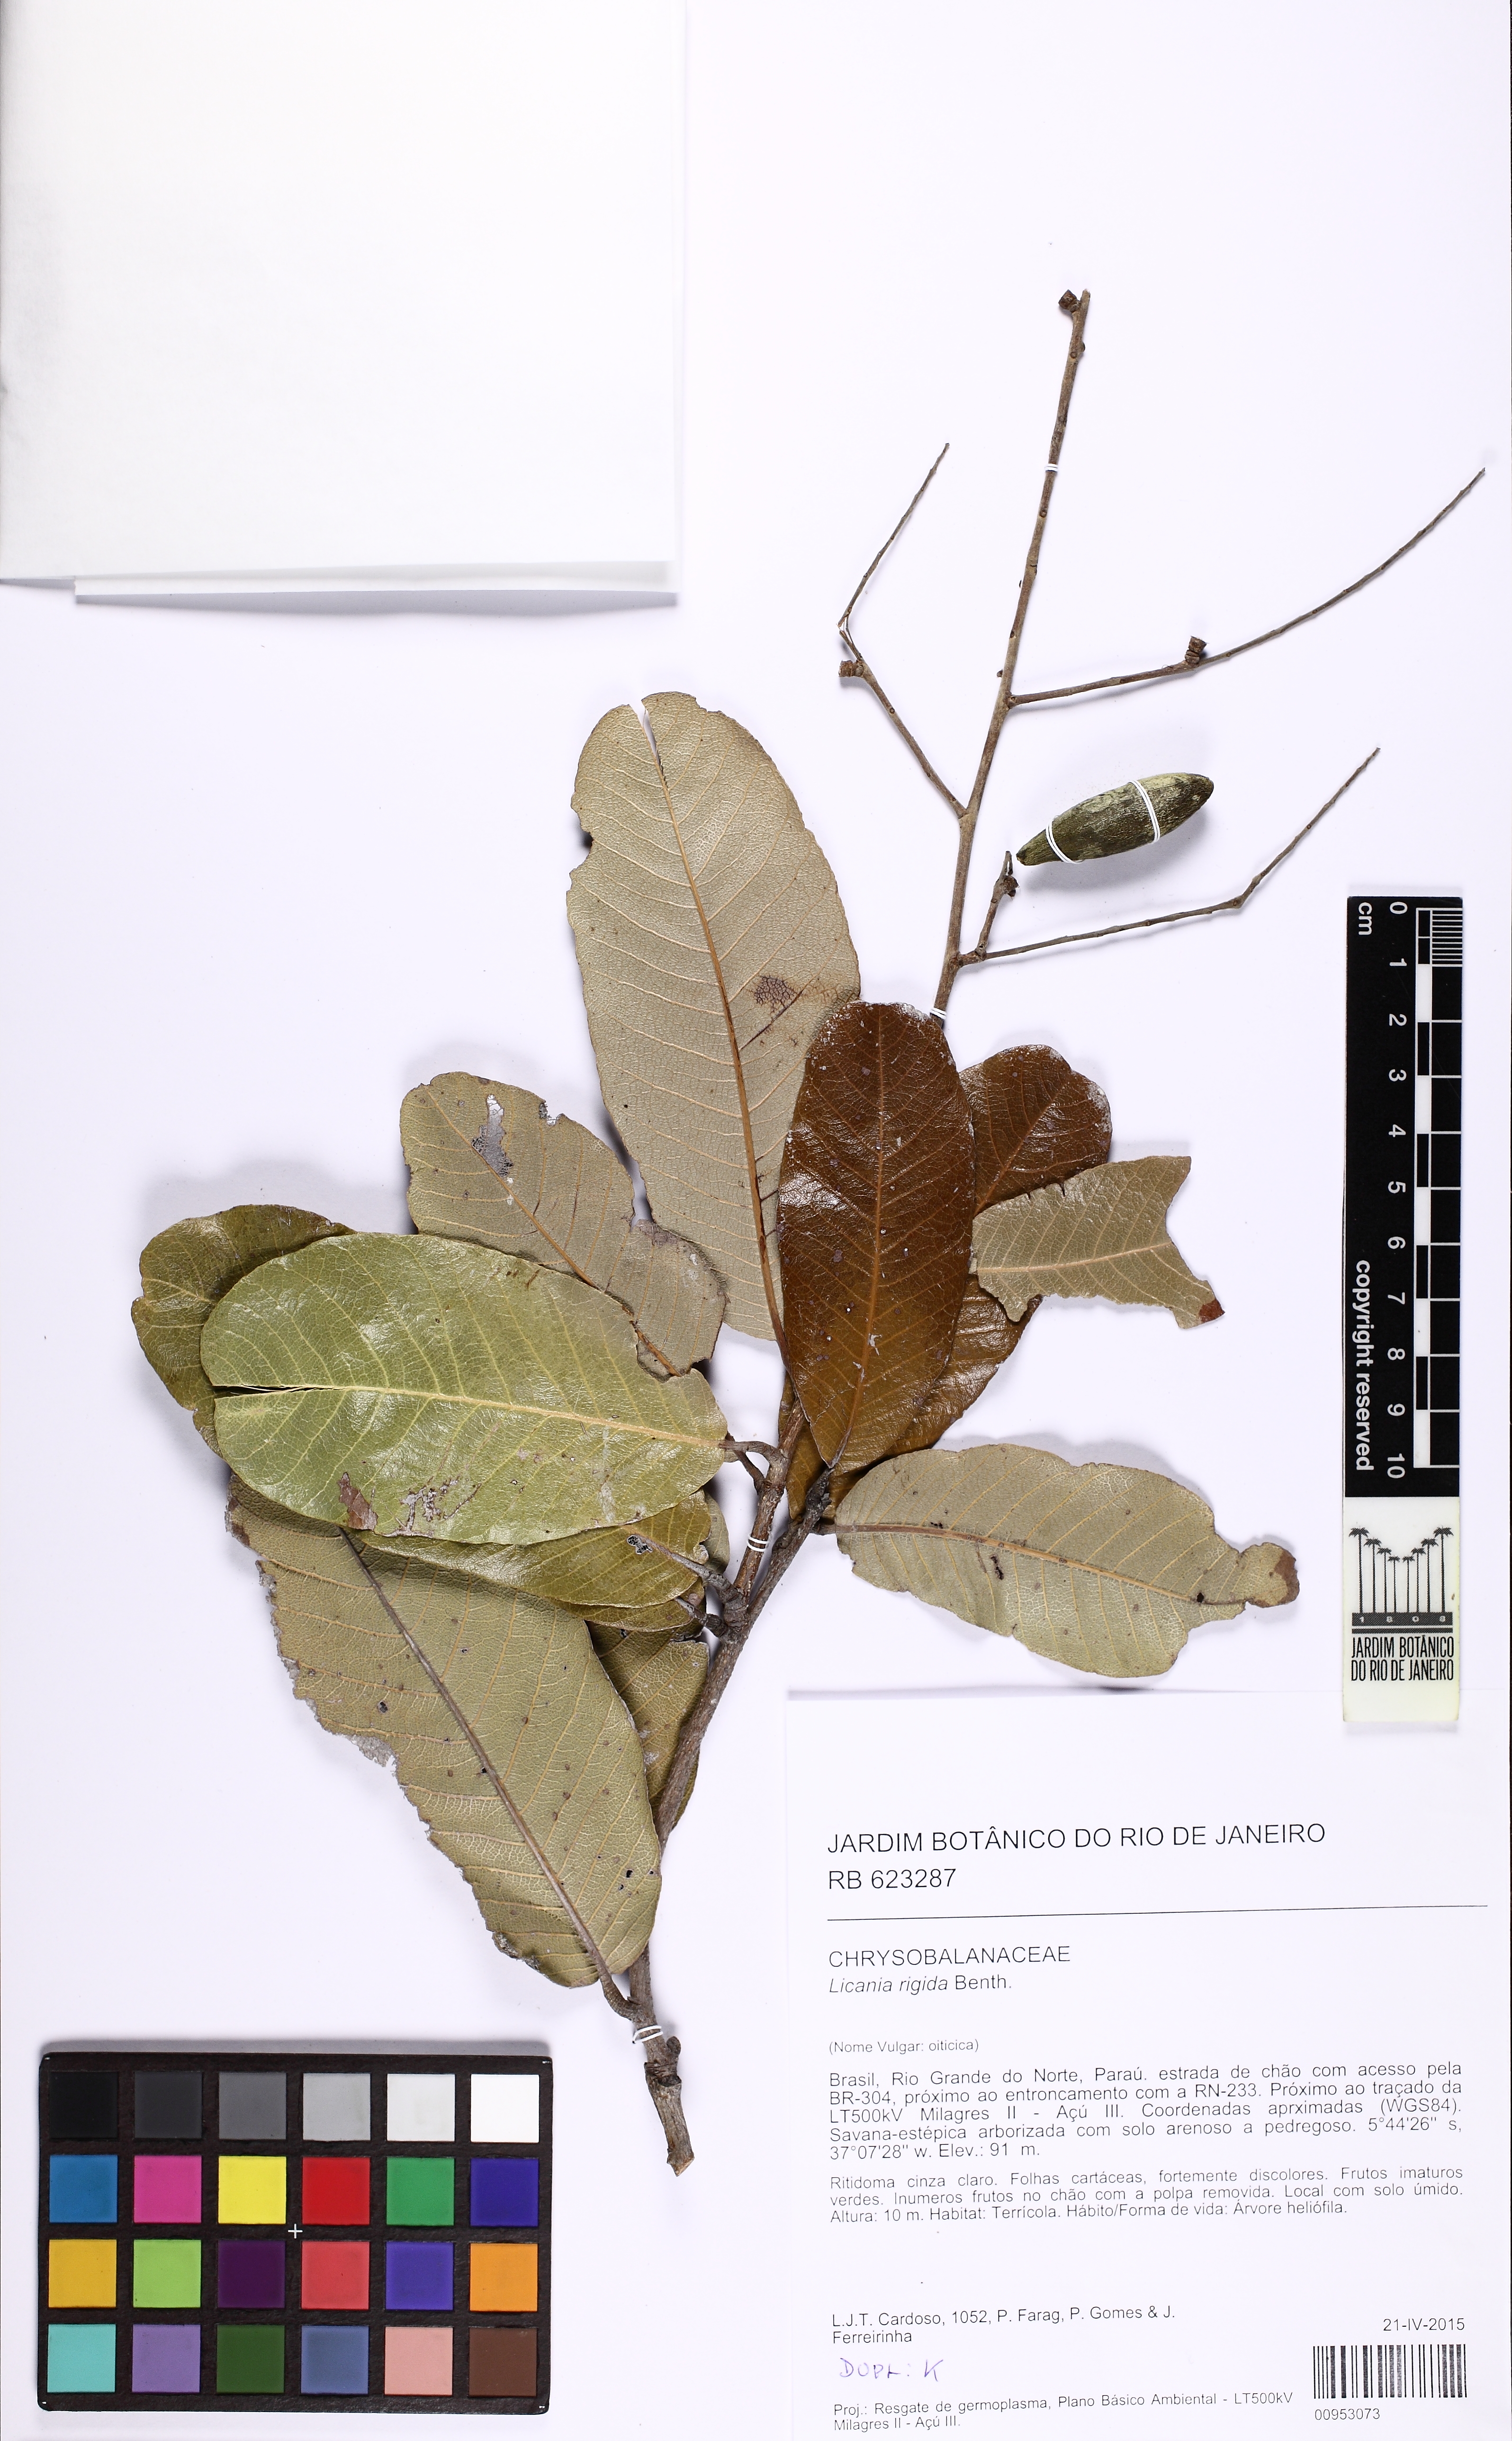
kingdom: Plantae
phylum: Tracheophyta
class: Magnoliopsida
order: Malpighiales
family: Chrysobalanaceae
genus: Microdesmia
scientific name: Microdesmia rigida
